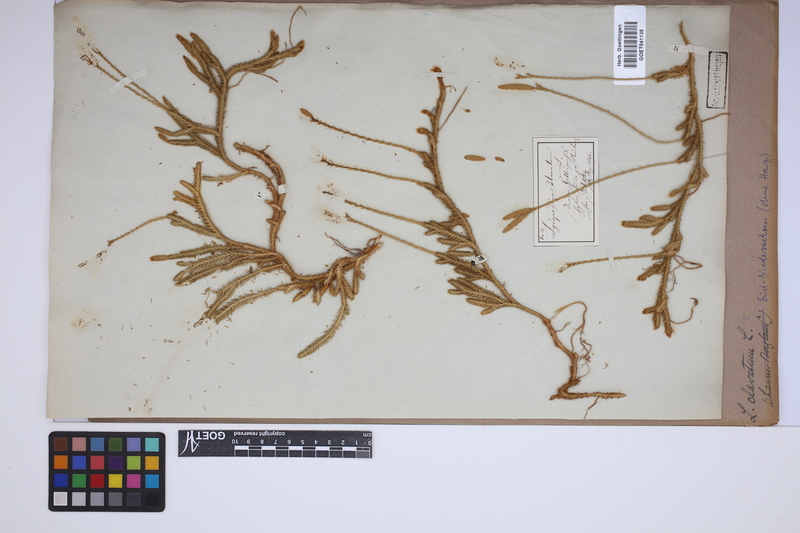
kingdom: Plantae
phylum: Tracheophyta
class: Lycopodiopsida
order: Lycopodiales
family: Lycopodiaceae
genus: Lycopodium
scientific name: Lycopodium clavatum
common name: Stag's-horn clubmoss
